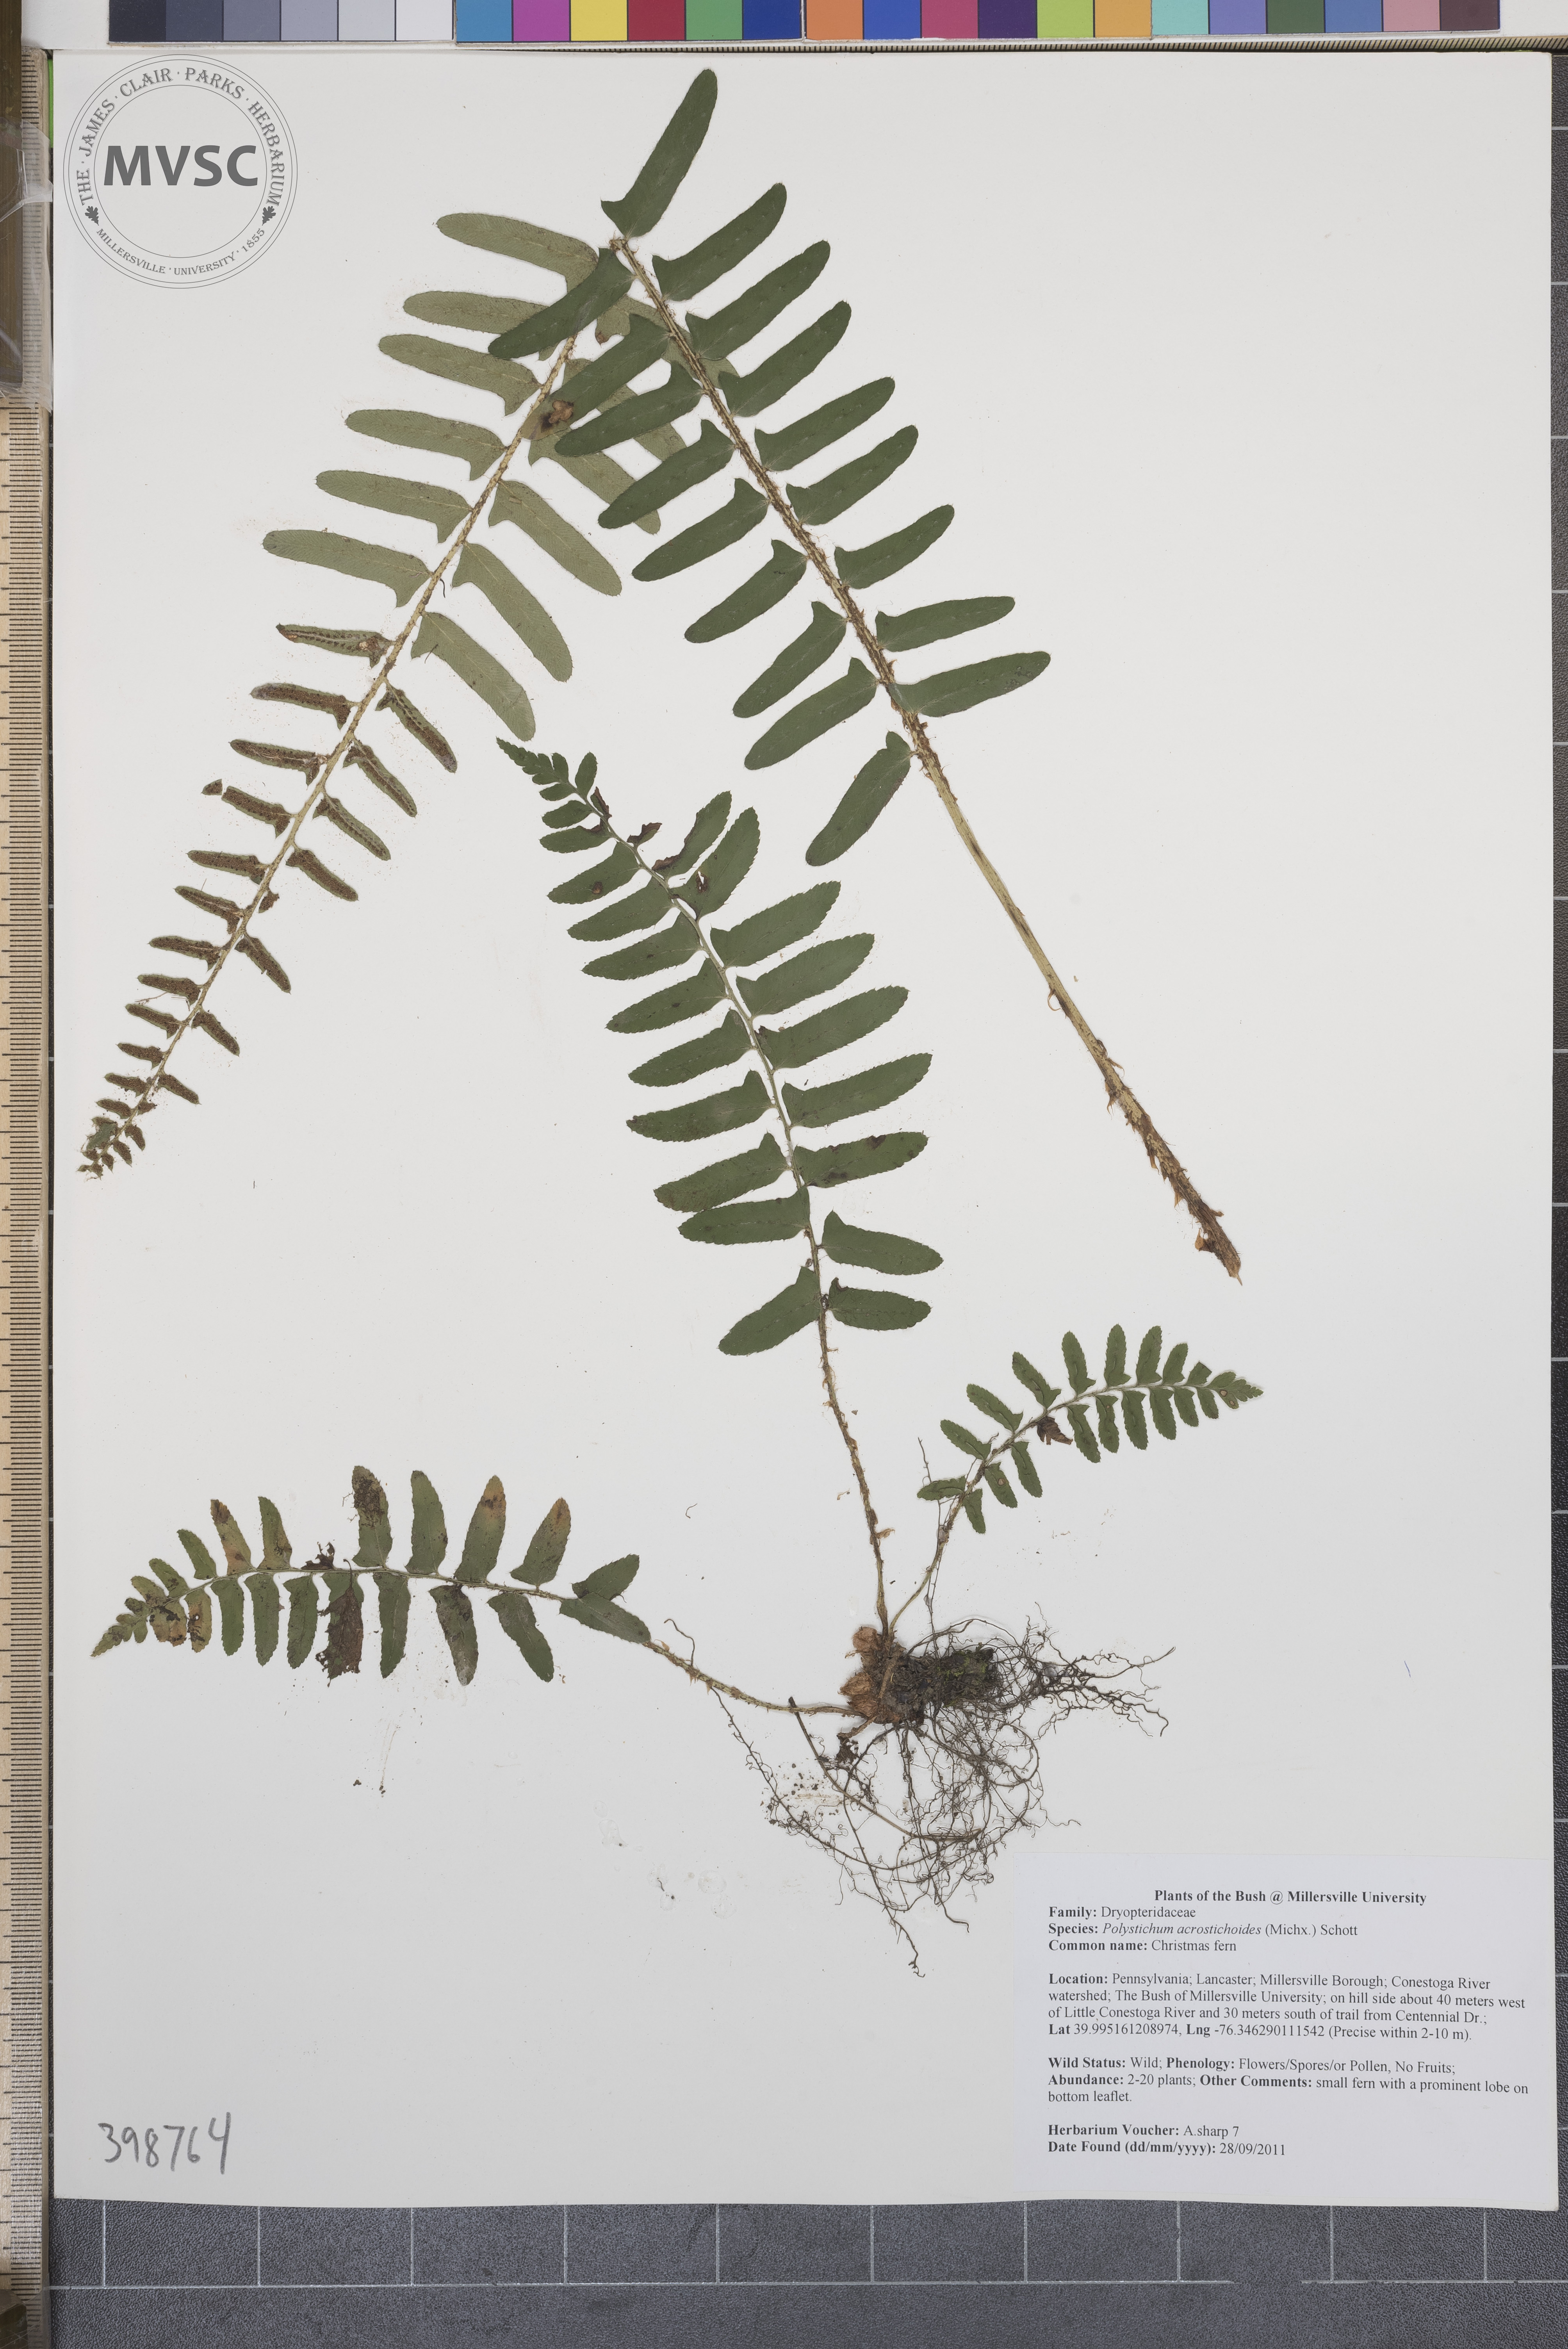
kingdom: Plantae
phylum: Tracheophyta
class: Polypodiopsida
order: Polypodiales
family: Dryopteridaceae
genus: Polystichum
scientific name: Polystichum acrostichoides
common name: Christmas fern
